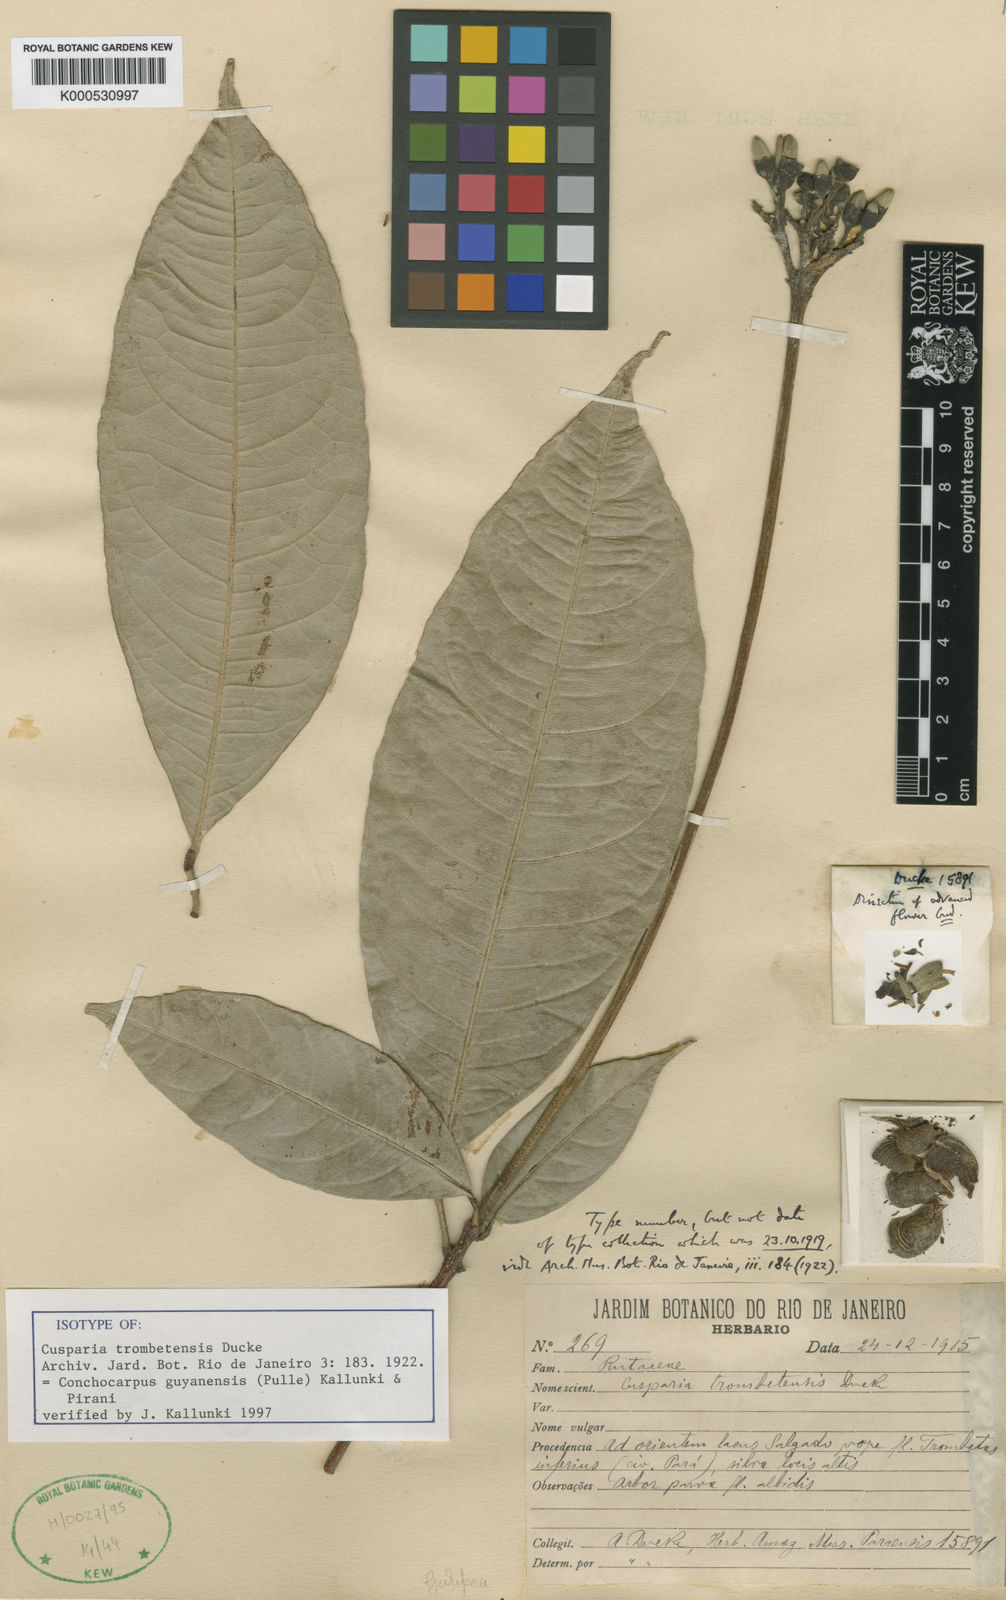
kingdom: Plantae
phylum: Tracheophyta
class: Magnoliopsida
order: Sapindales
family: Rutaceae
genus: Conchocarpus
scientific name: Conchocarpus guyanensis
